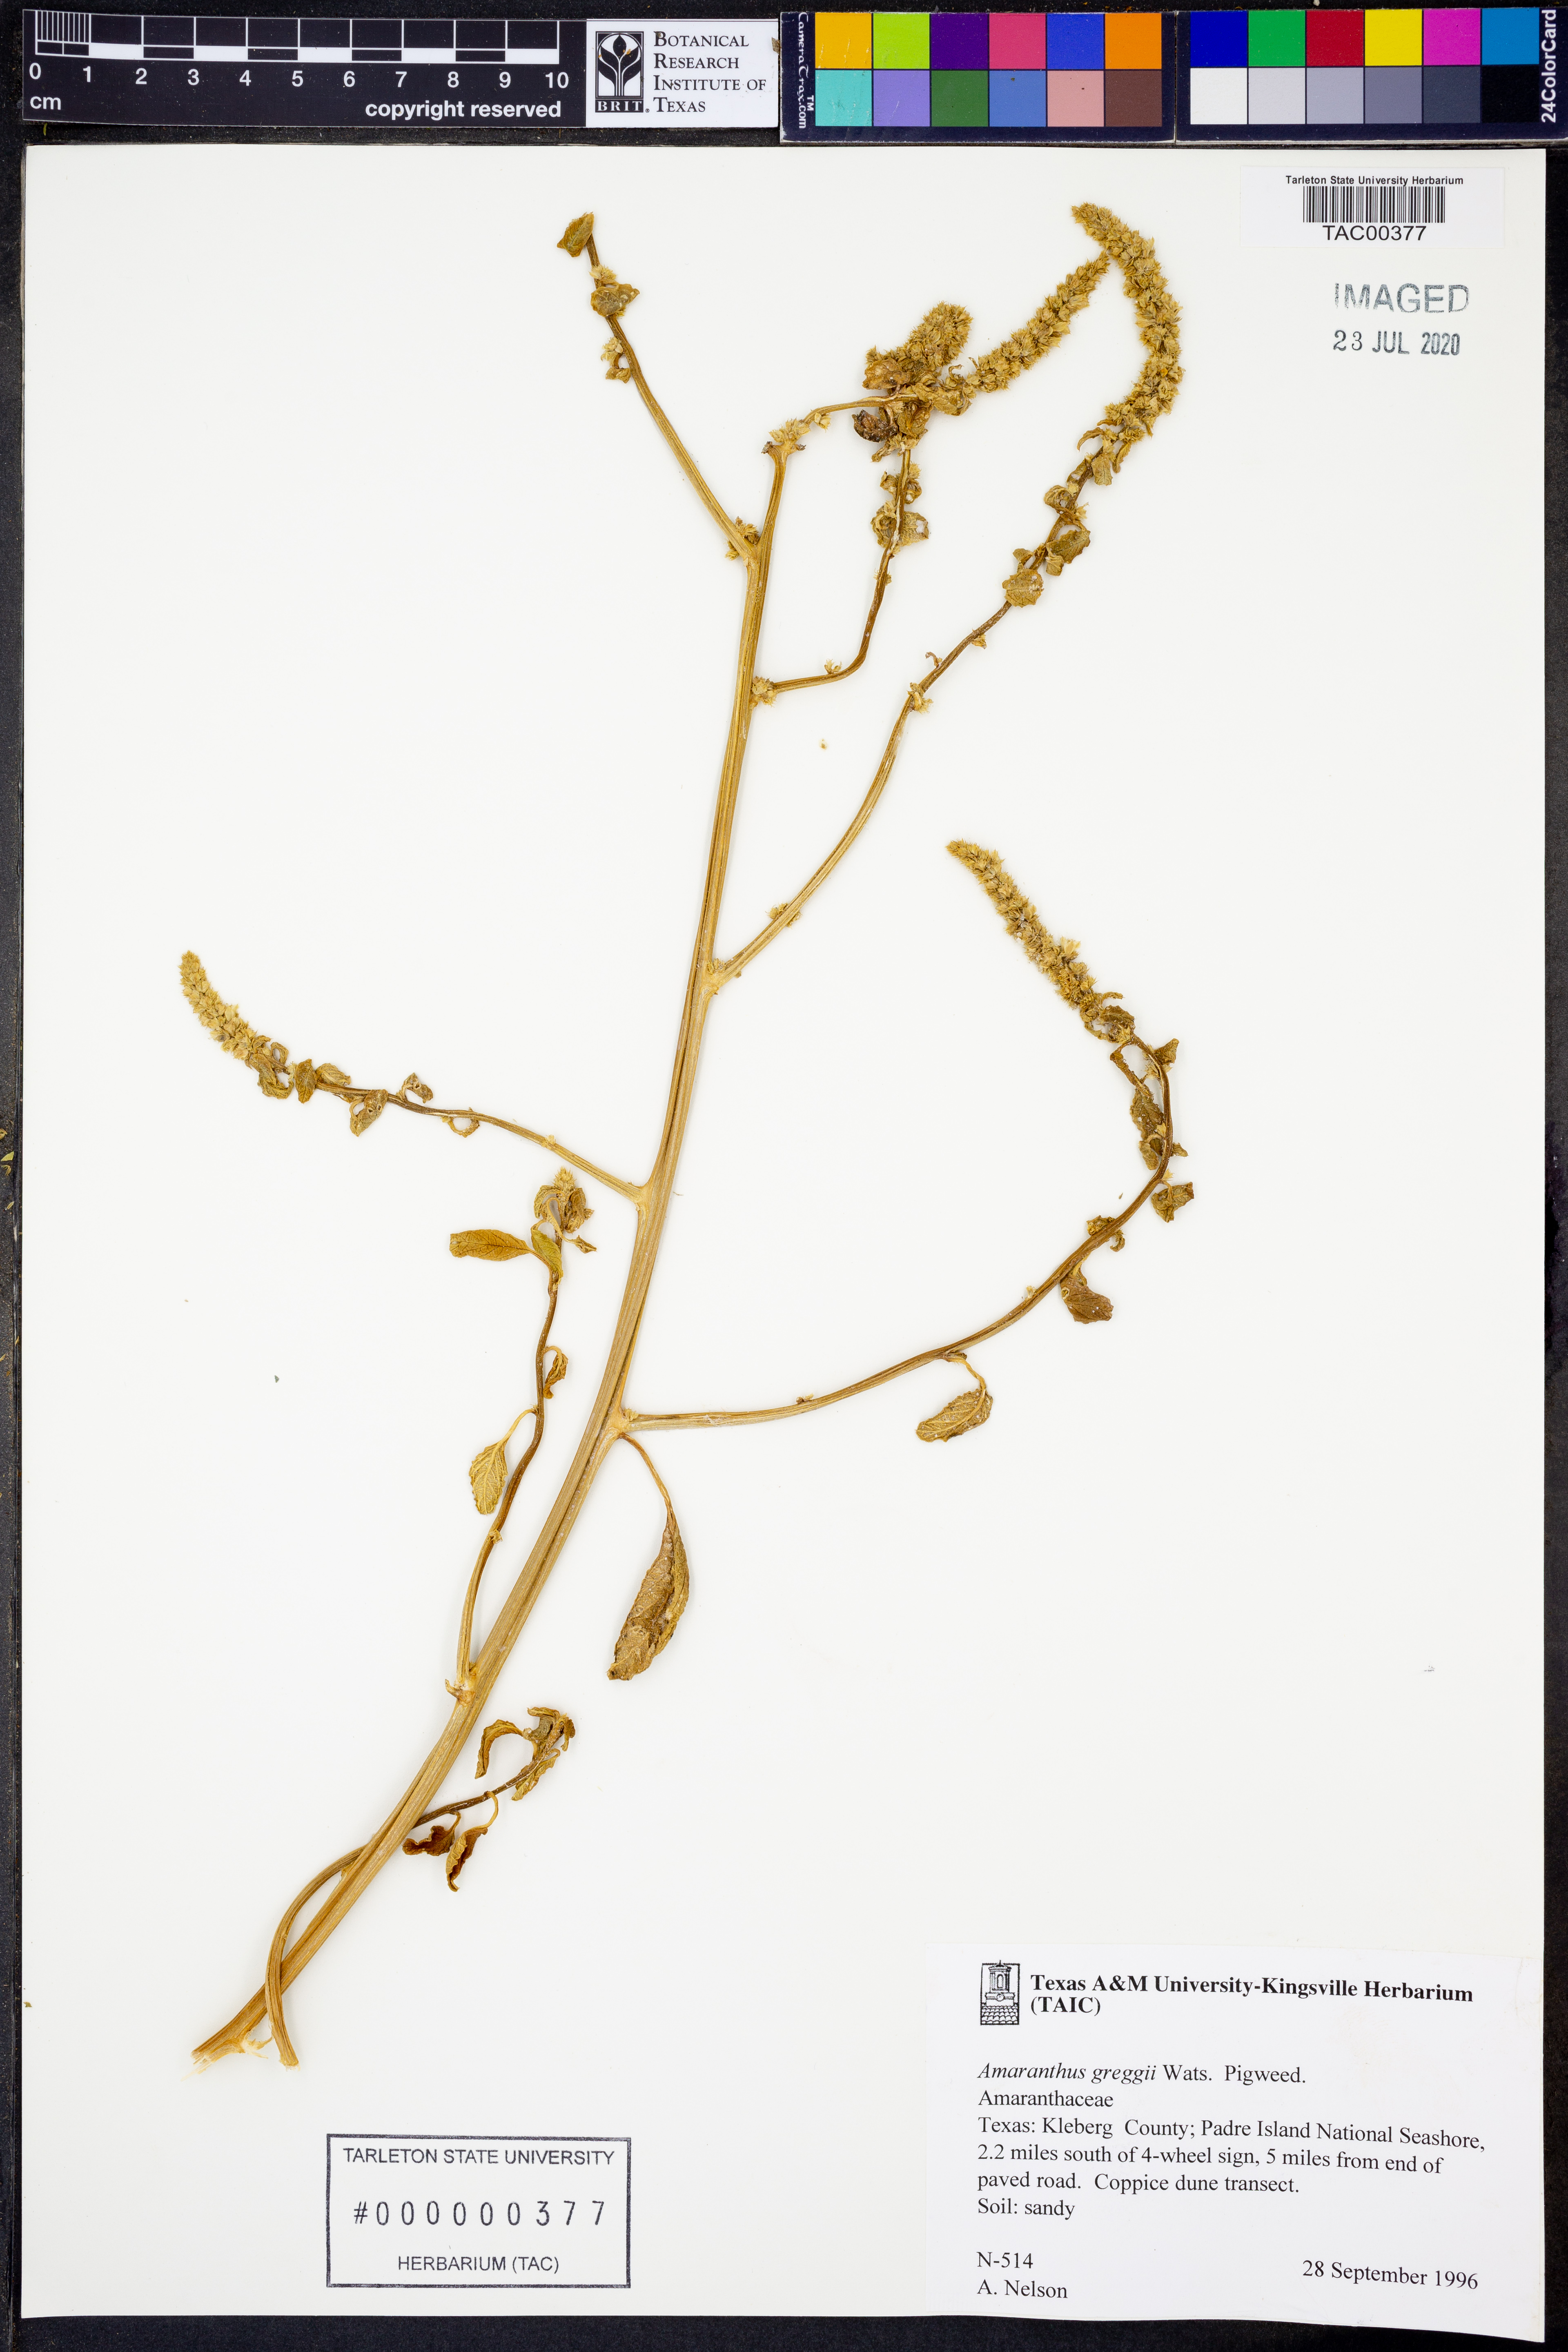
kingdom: Plantae
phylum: Tracheophyta
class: Magnoliopsida
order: Caryophyllales
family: Amaranthaceae
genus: Amaranthus
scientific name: Amaranthus greggii
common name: Josiah amaranth
